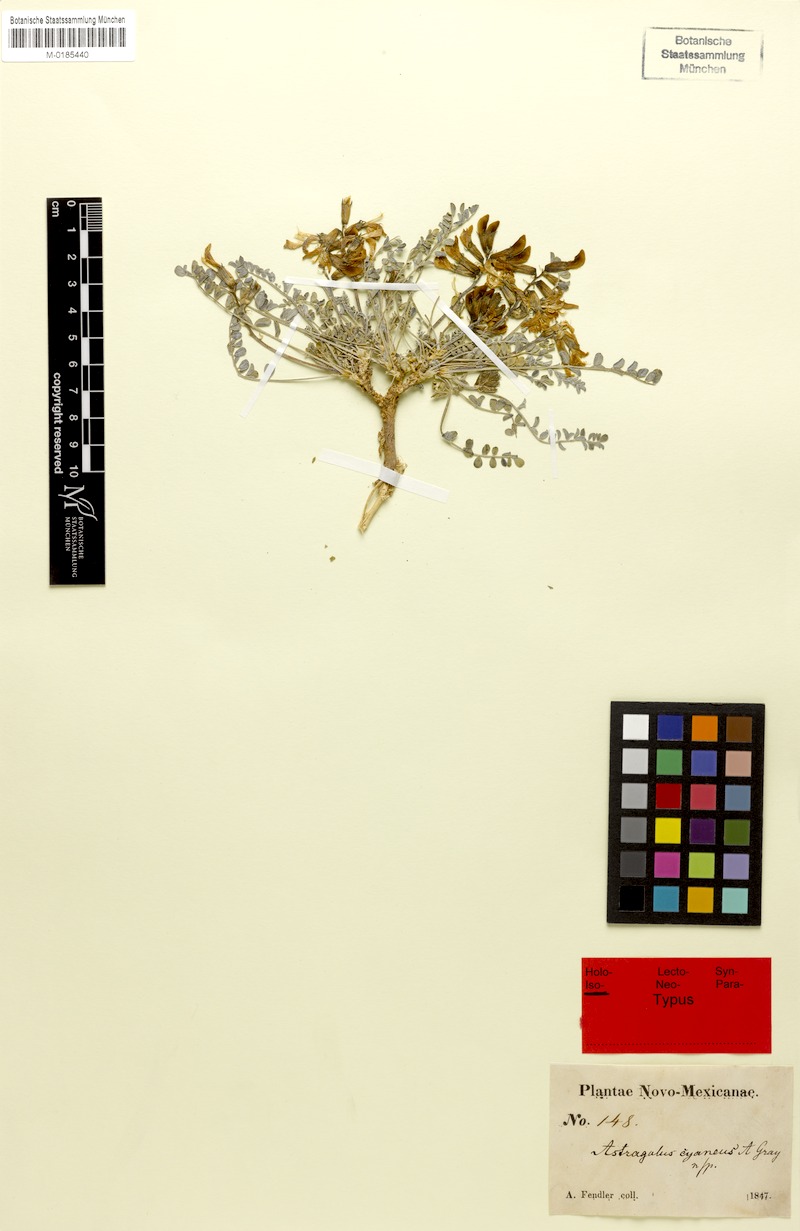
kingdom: Plantae
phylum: Tracheophyta
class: Magnoliopsida
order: Fabales
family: Fabaceae
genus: Astragalus
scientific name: Astragalus cyaneus
